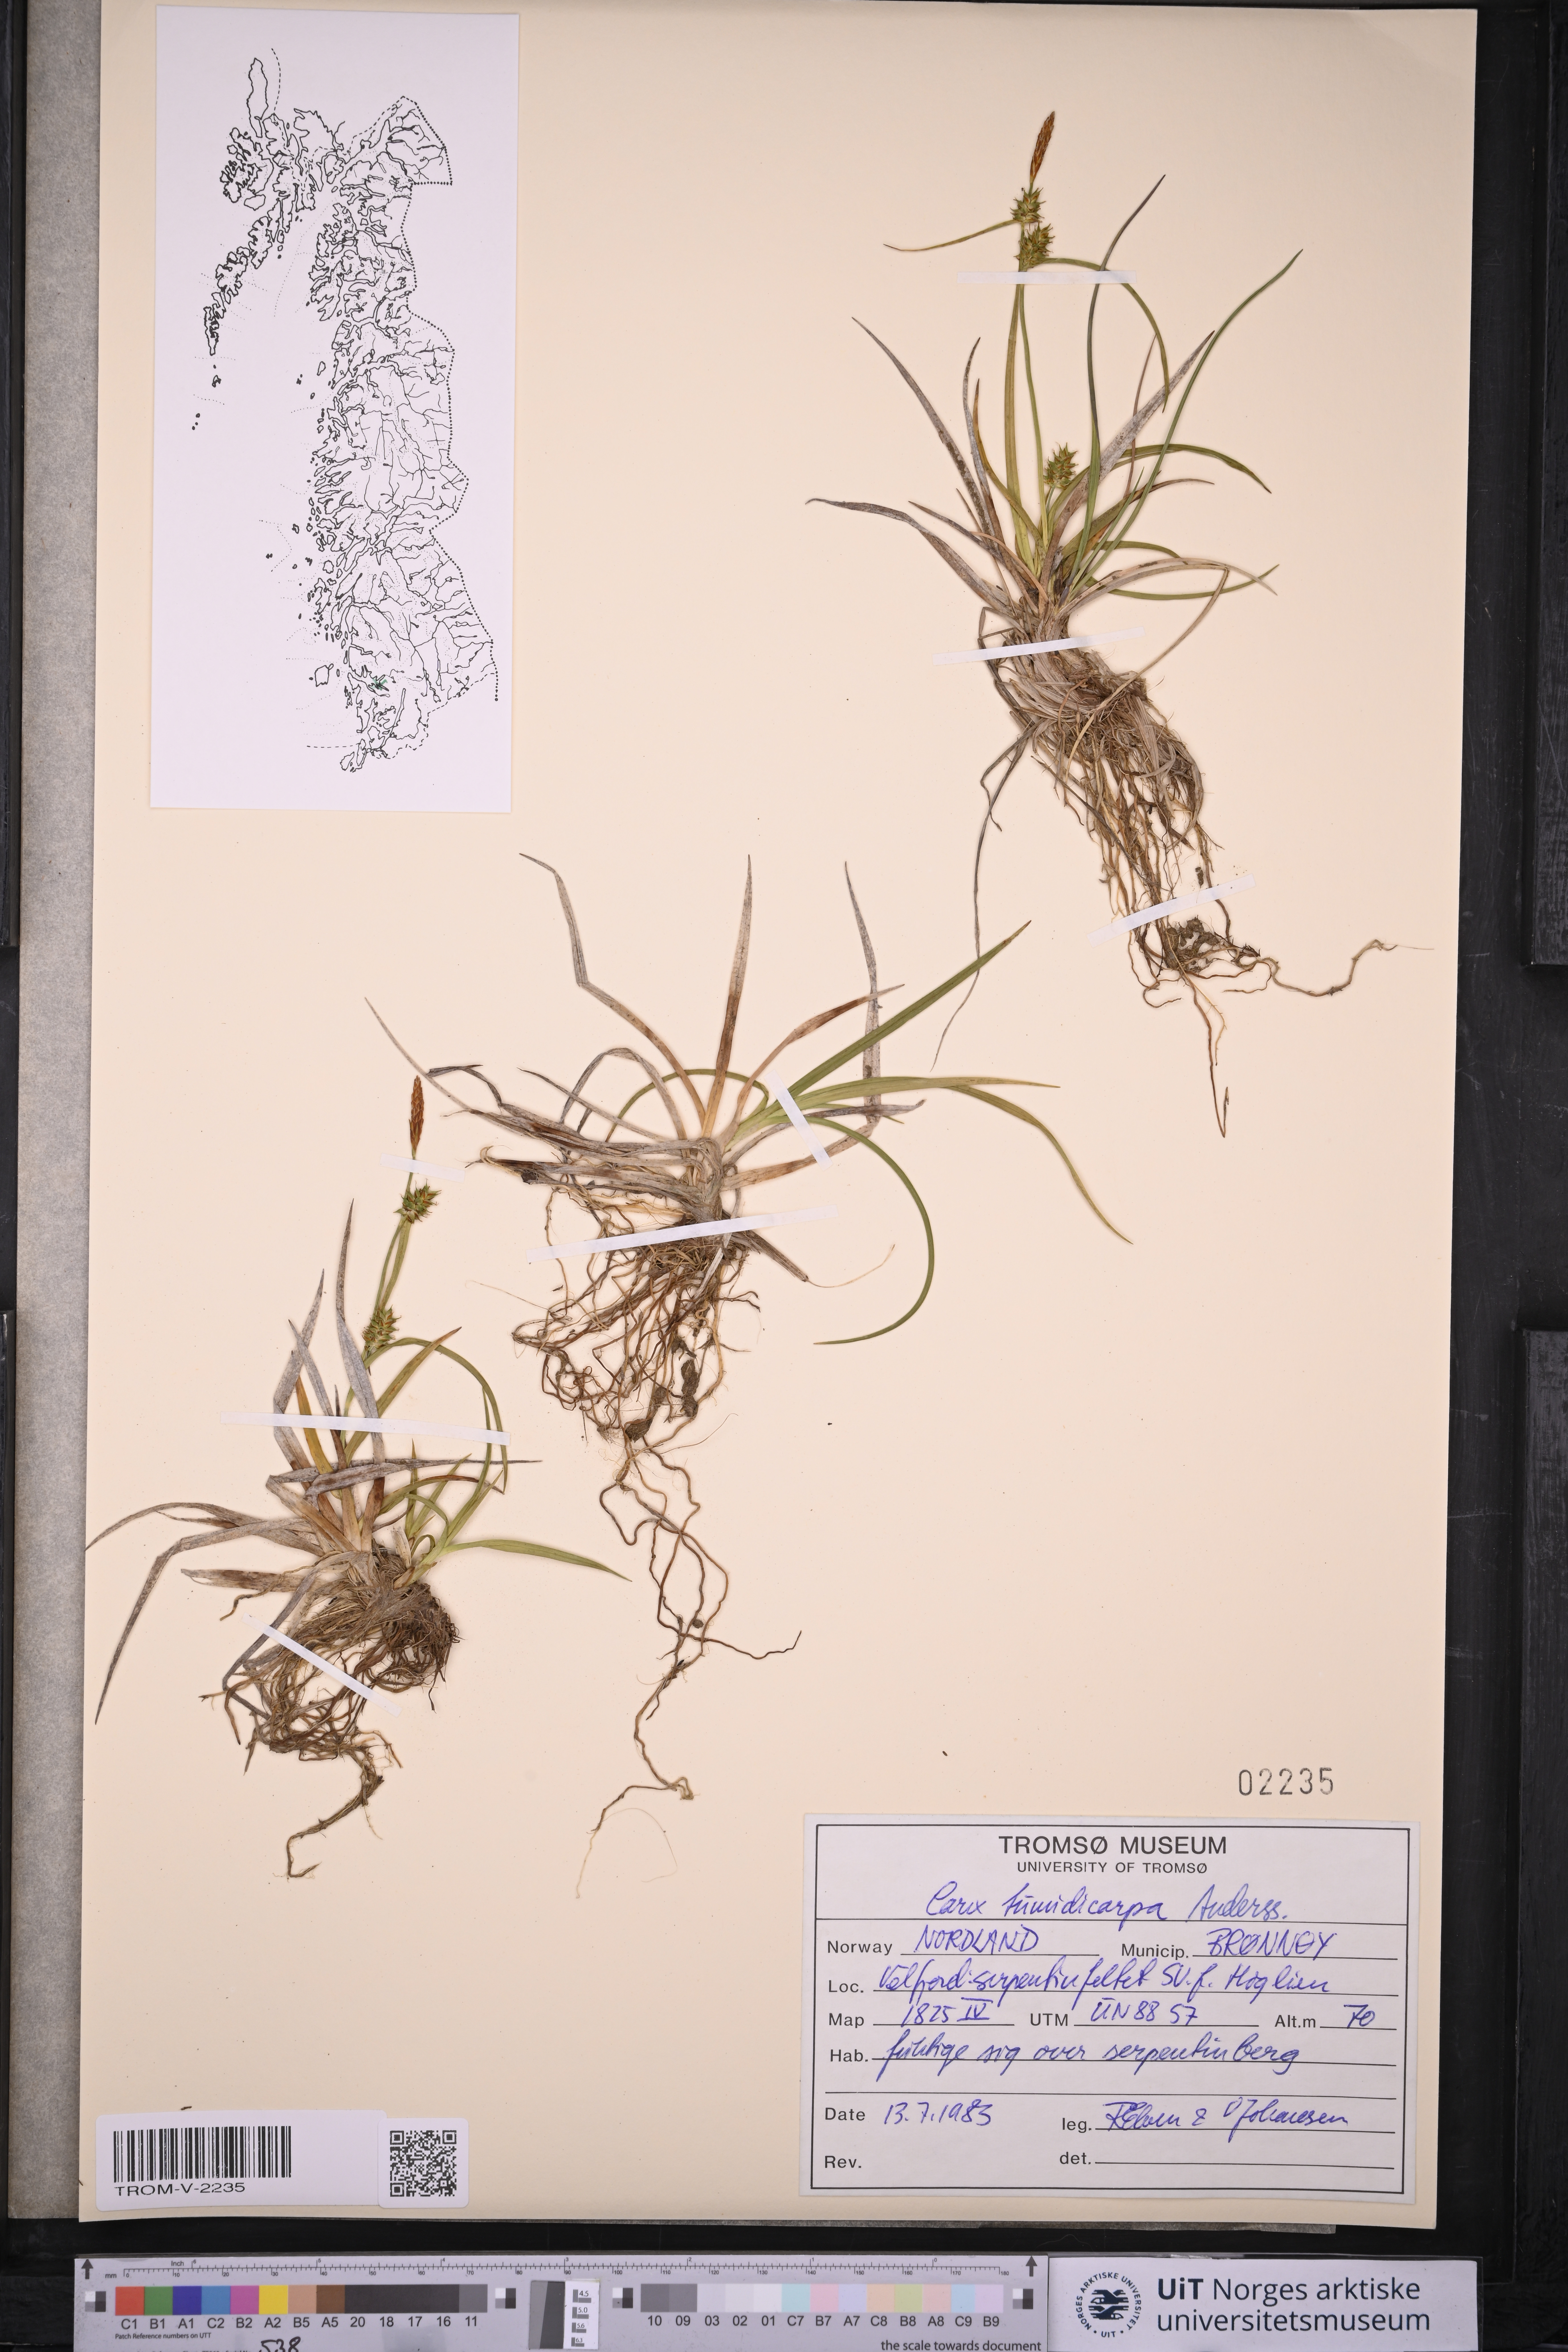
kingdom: Plantae
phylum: Tracheophyta
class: Liliopsida
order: Poales
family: Cyperaceae
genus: Carex
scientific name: Carex demissa
